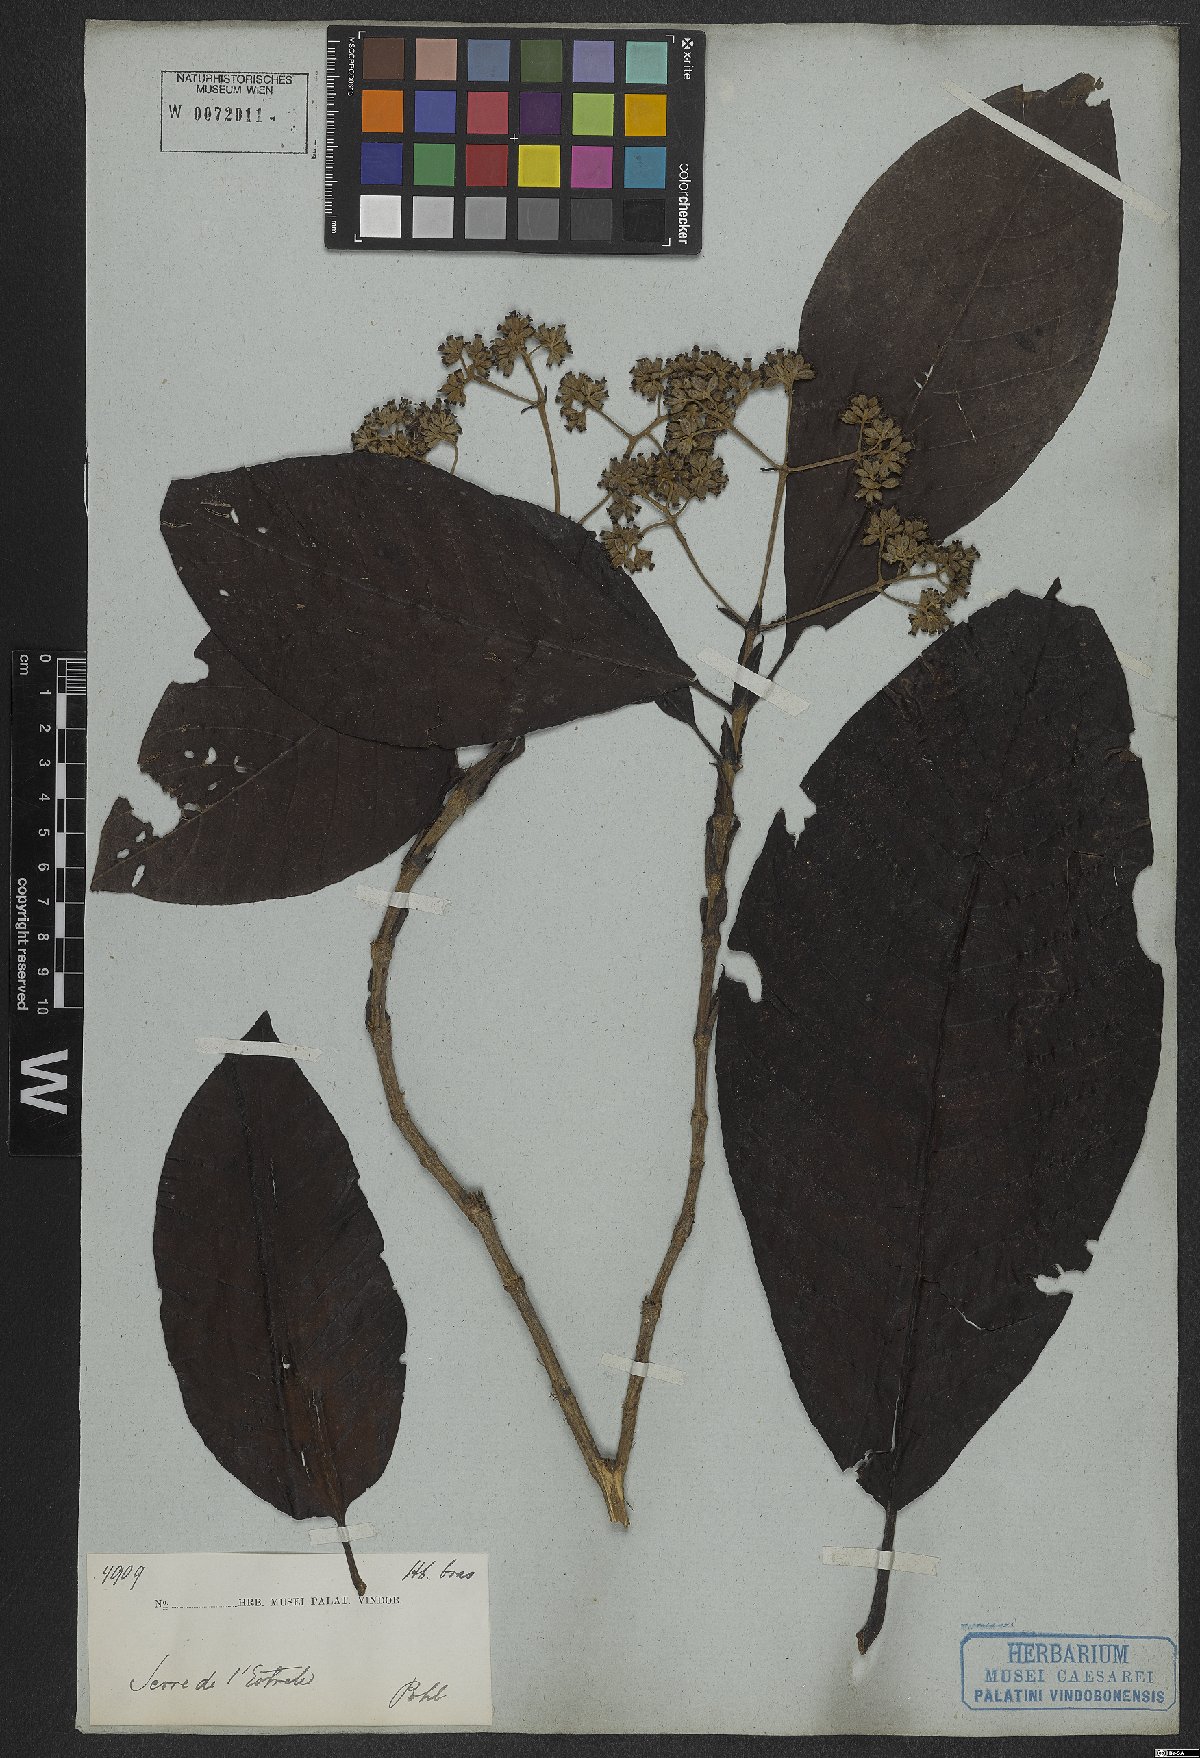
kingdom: Plantae
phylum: Tracheophyta
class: Magnoliopsida
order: Gentianales
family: Rubiaceae
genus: Bathysa
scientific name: Bathysa stipulata
